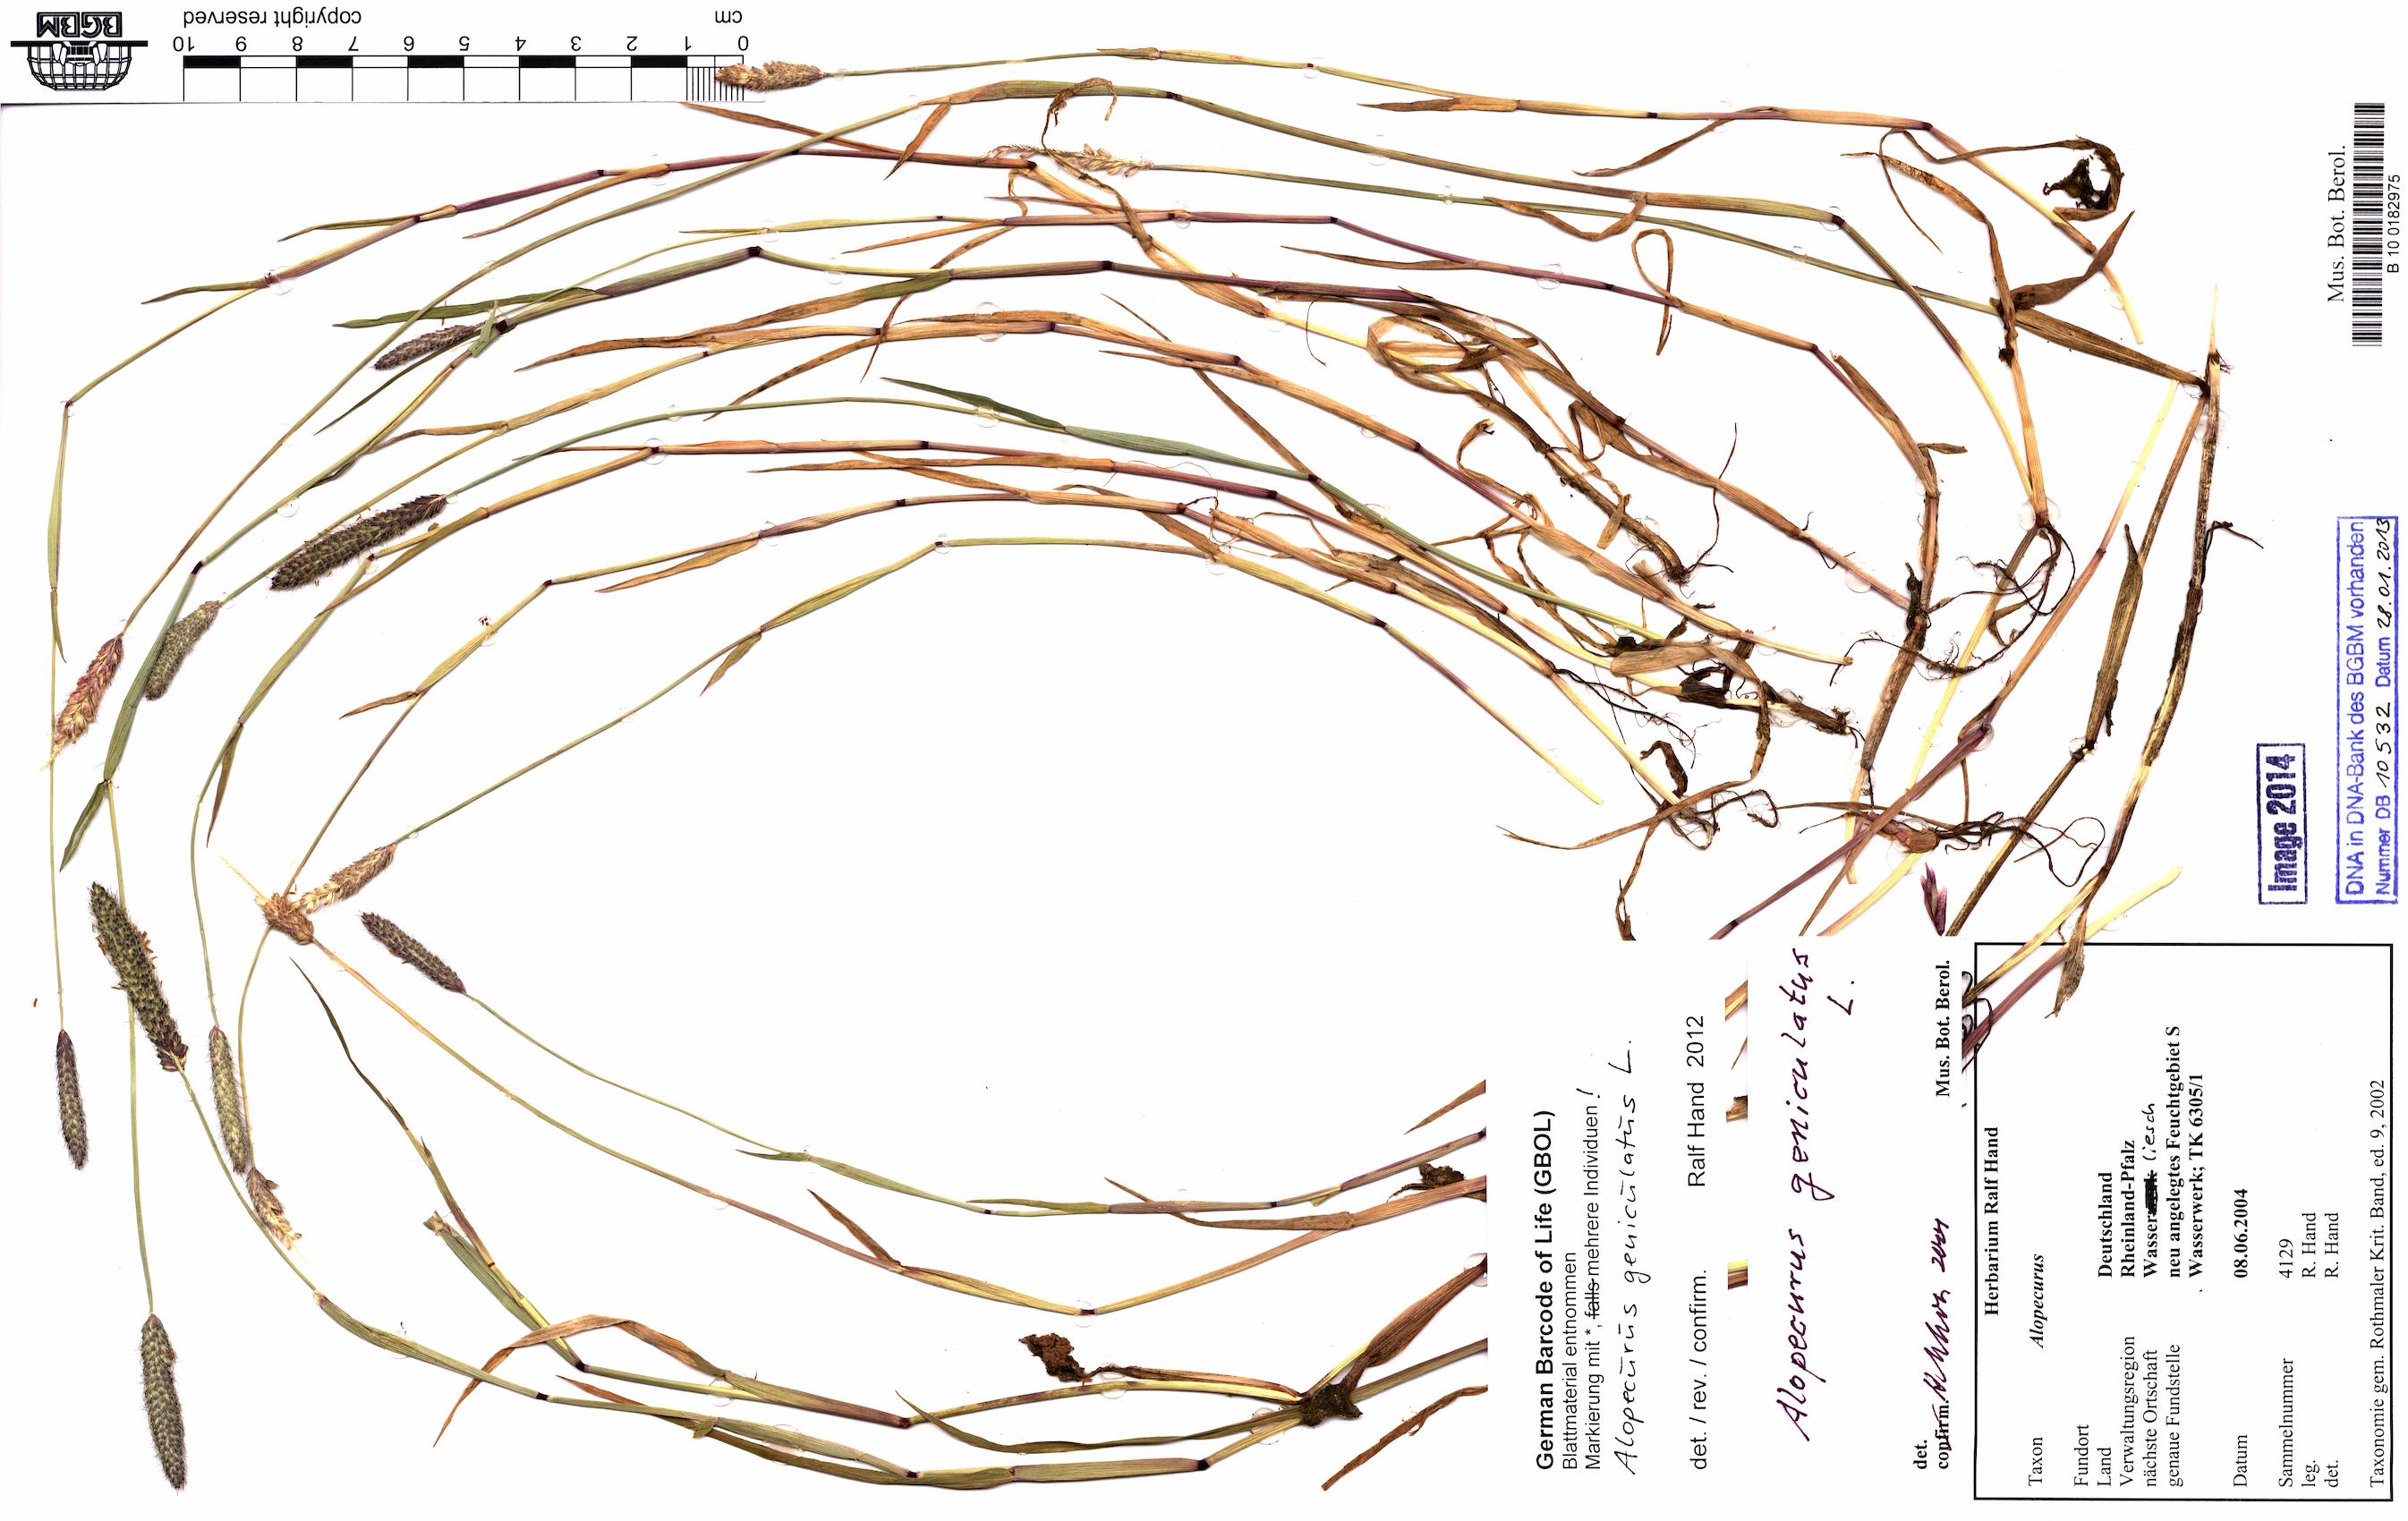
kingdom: Plantae
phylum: Tracheophyta
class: Liliopsida
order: Poales
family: Poaceae
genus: Alopecurus
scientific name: Alopecurus geniculatus
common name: Water foxtail
